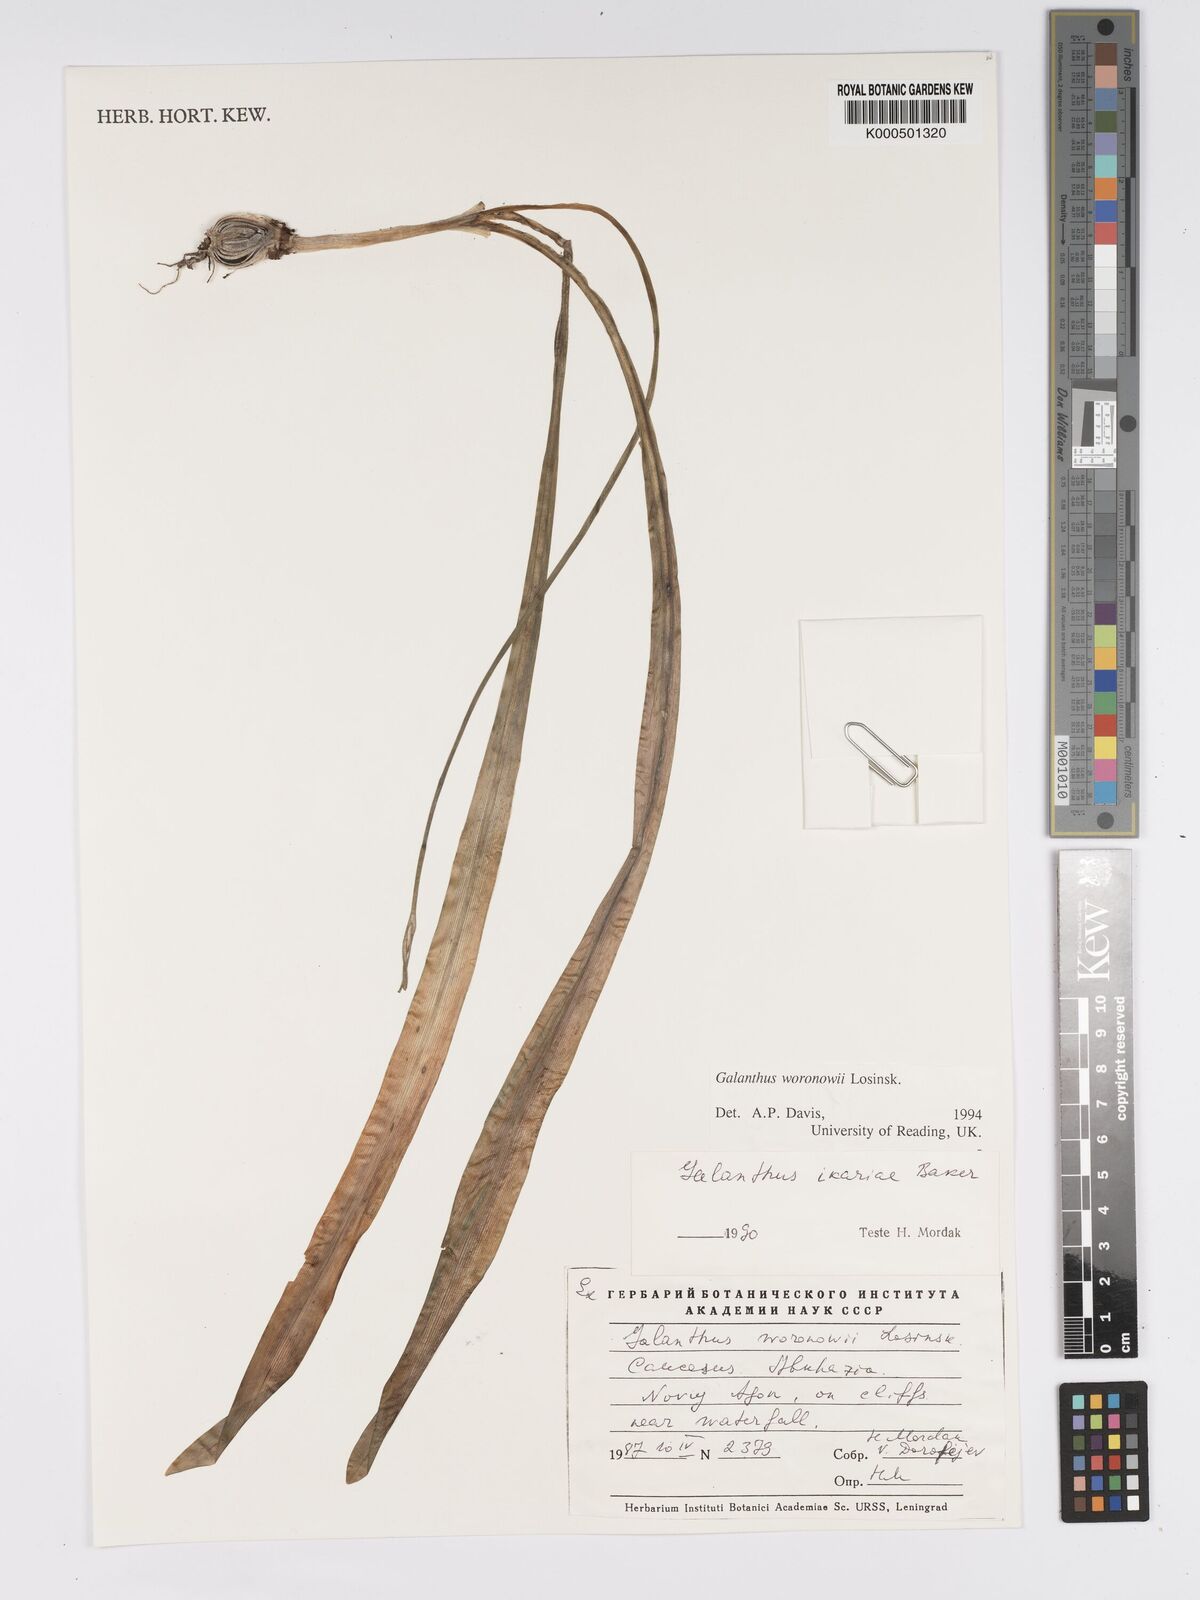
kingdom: Plantae
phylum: Tracheophyta
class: Liliopsida
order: Asparagales
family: Amaryllidaceae
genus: Galanthus
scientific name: Galanthus woronowii
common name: Green snowdrop
